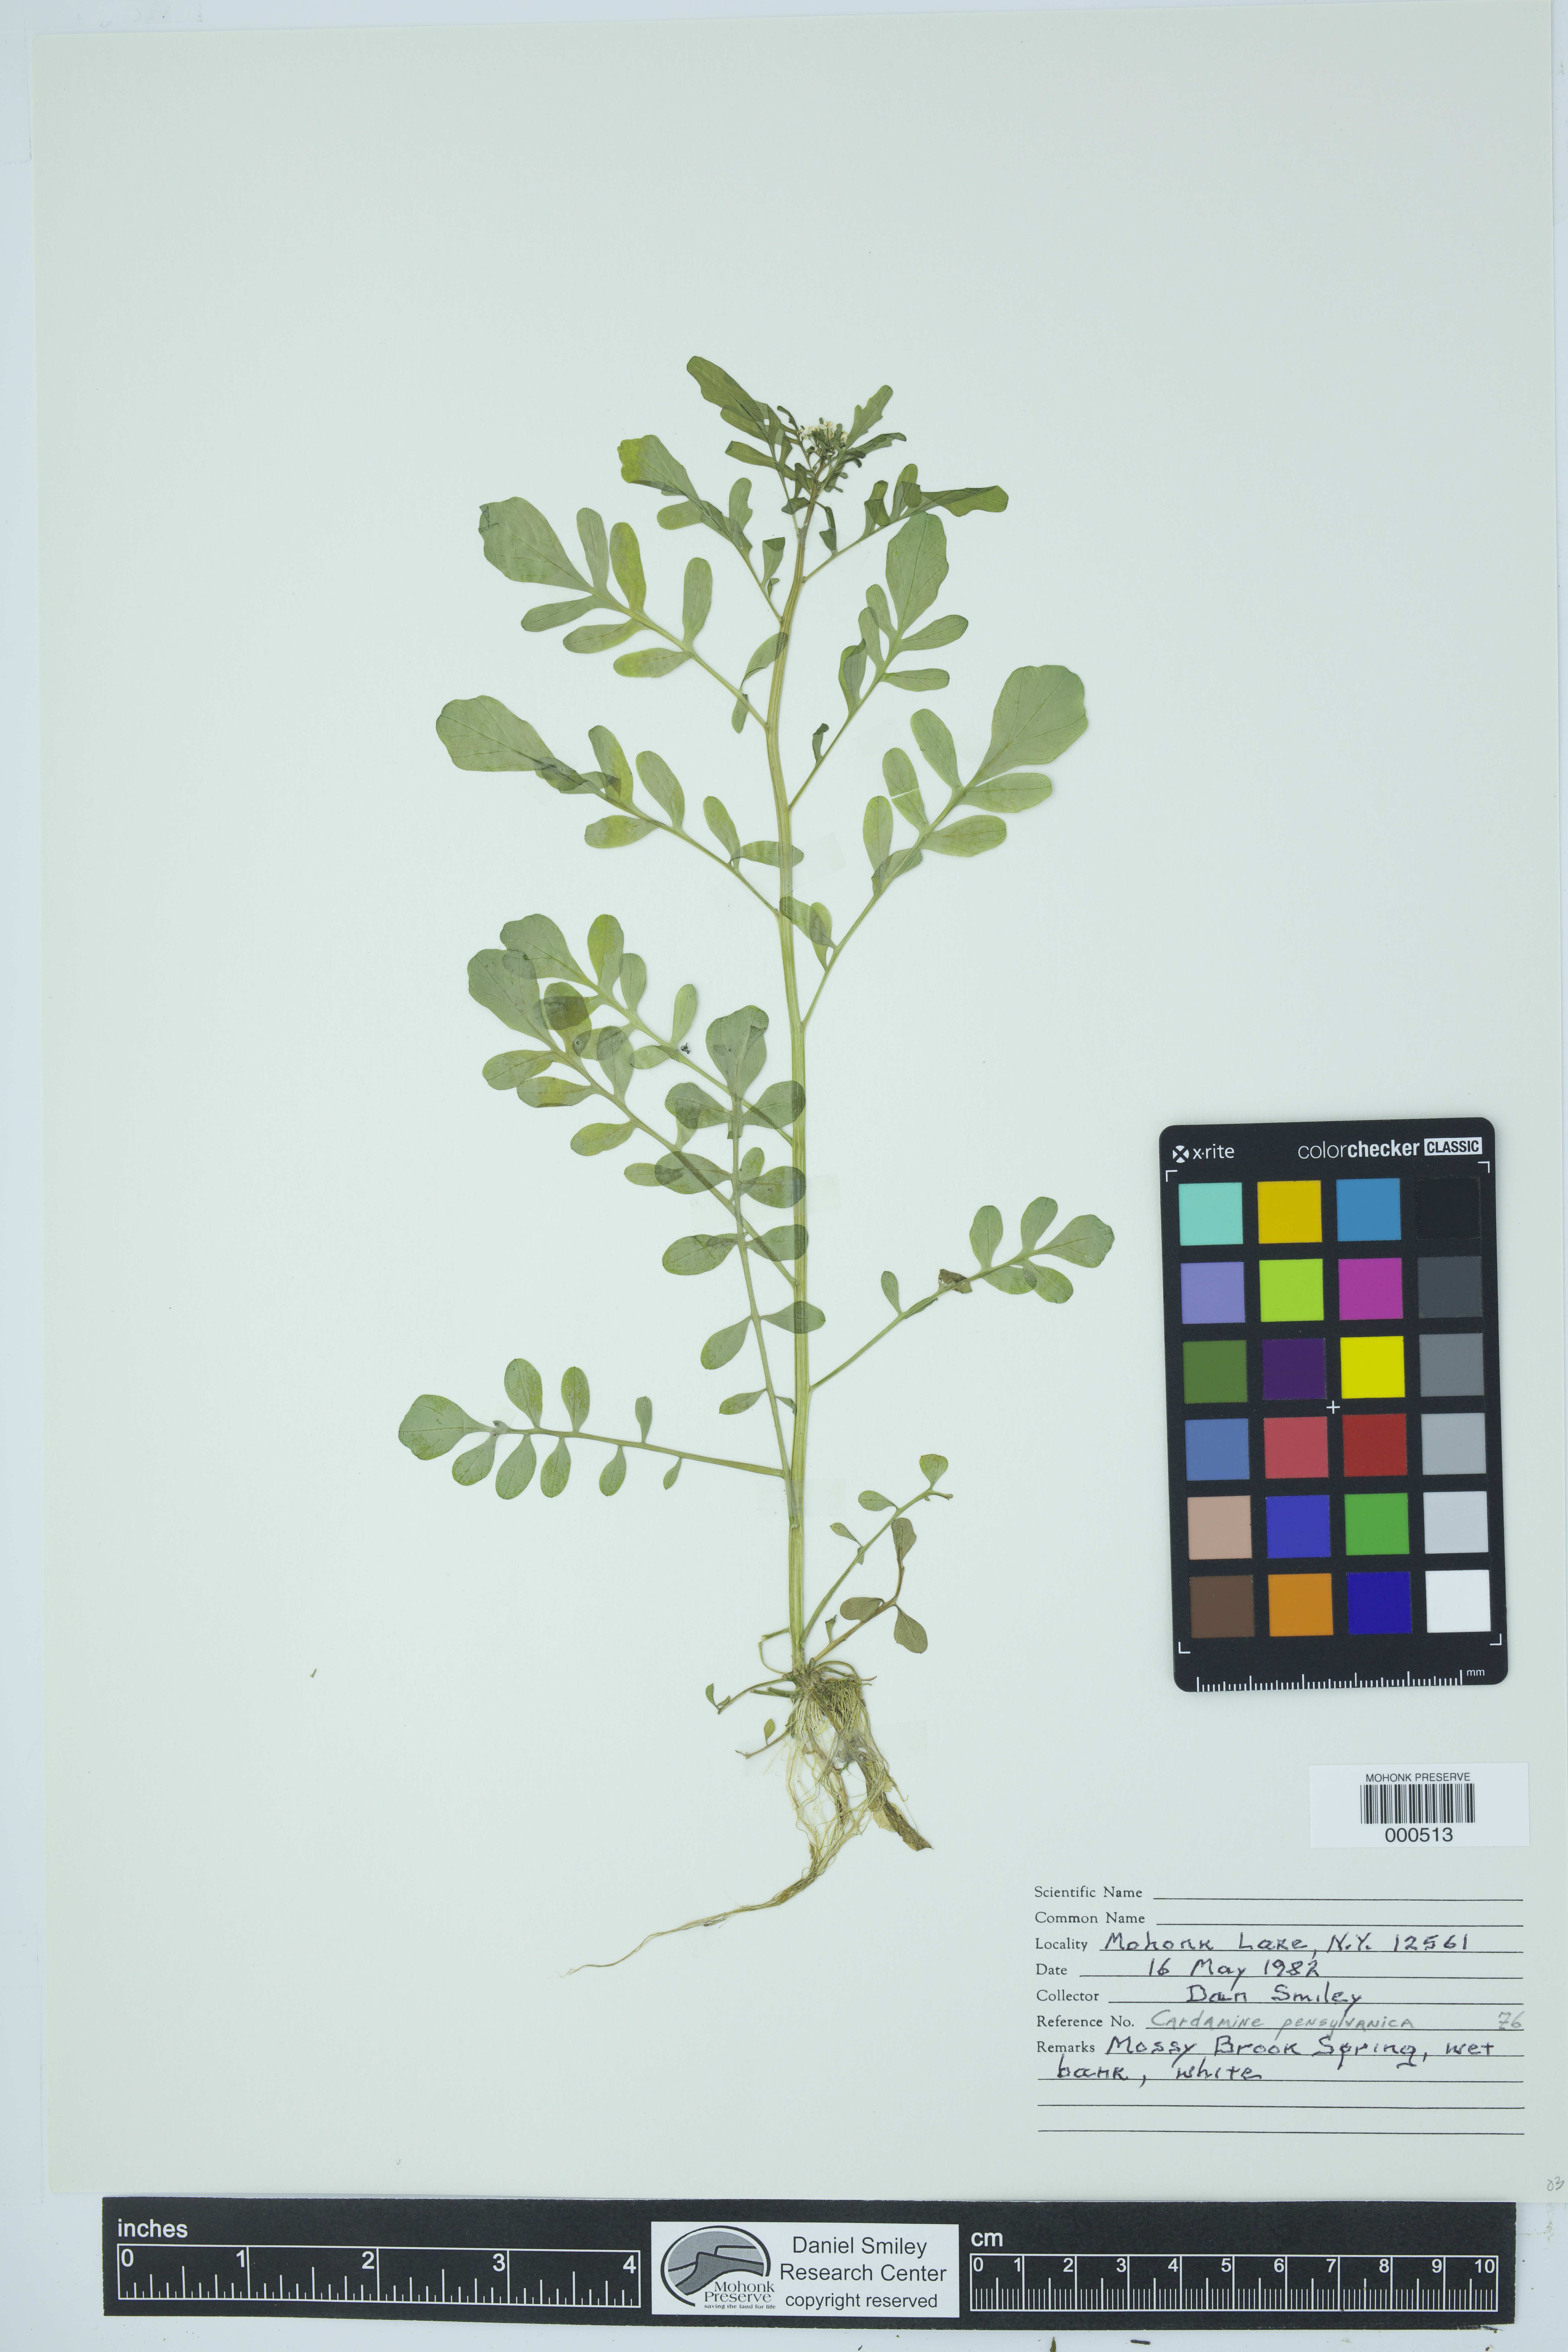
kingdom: Plantae
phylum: Tracheophyta
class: Magnoliopsida
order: Brassicales
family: Brassicaceae
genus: Cardamine
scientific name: Cardamine pensylvanica
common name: Pennsylvania bittercress
